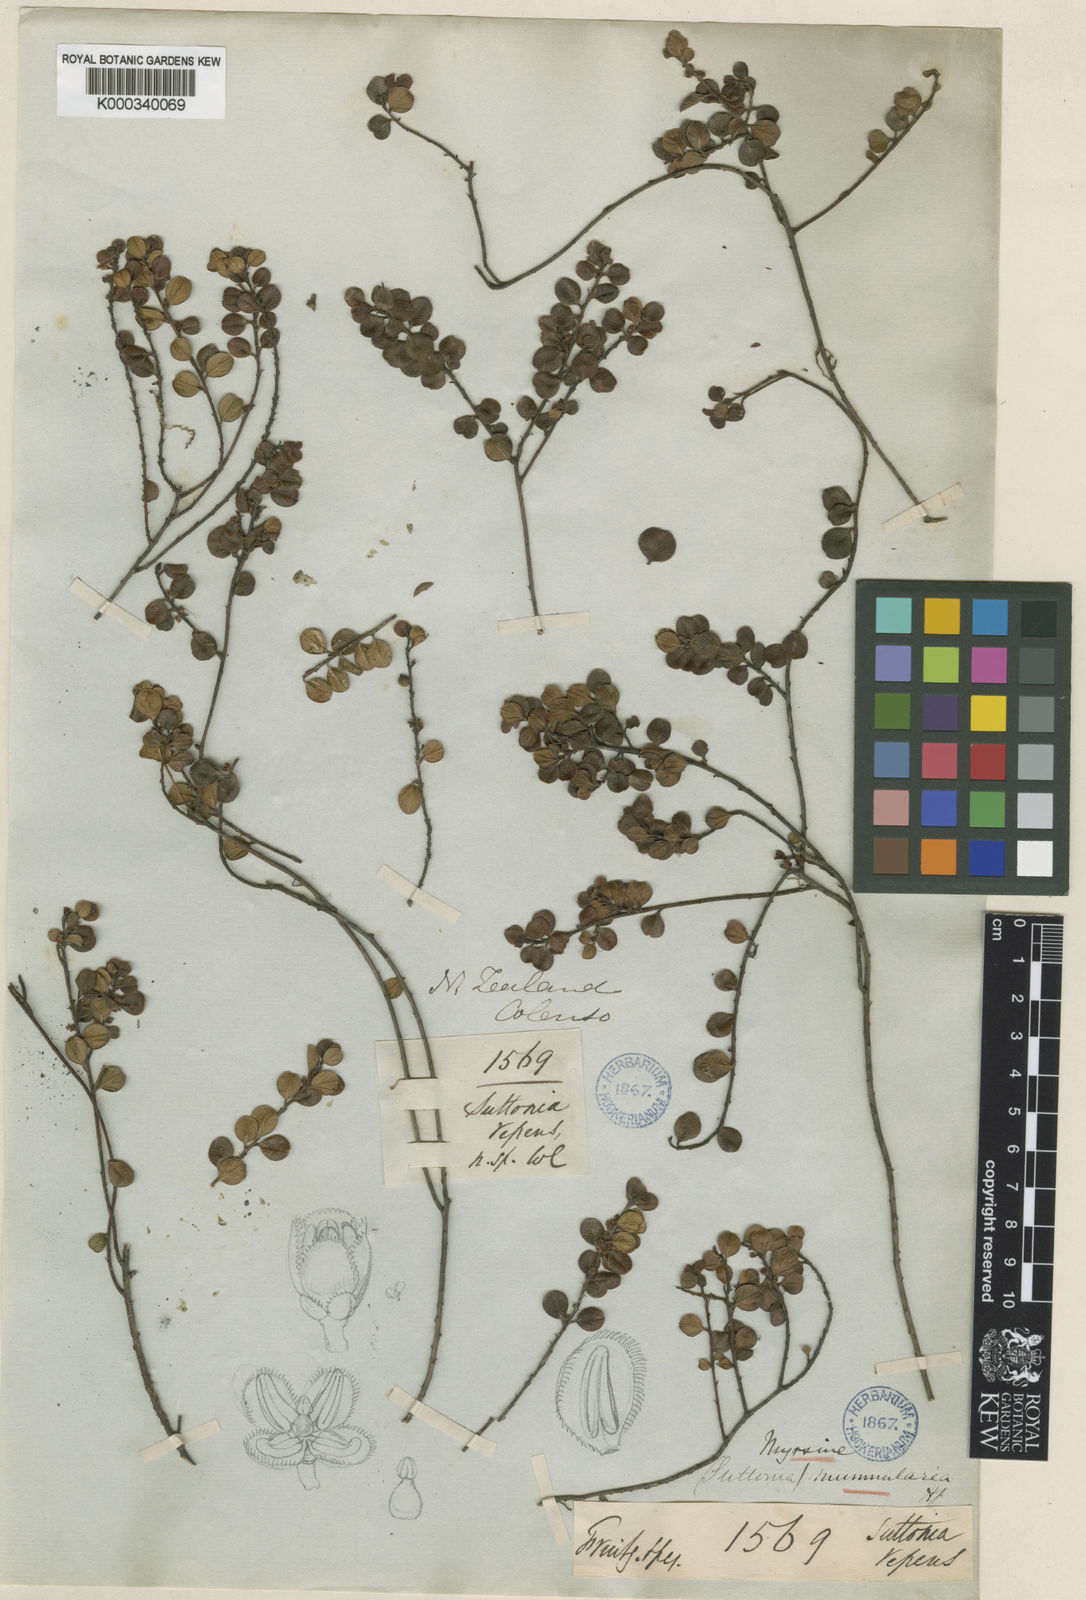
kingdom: Plantae
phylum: Tracheophyta
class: Magnoliopsida
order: Ericales
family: Primulaceae
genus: Myrsine
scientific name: Myrsine nummularia
